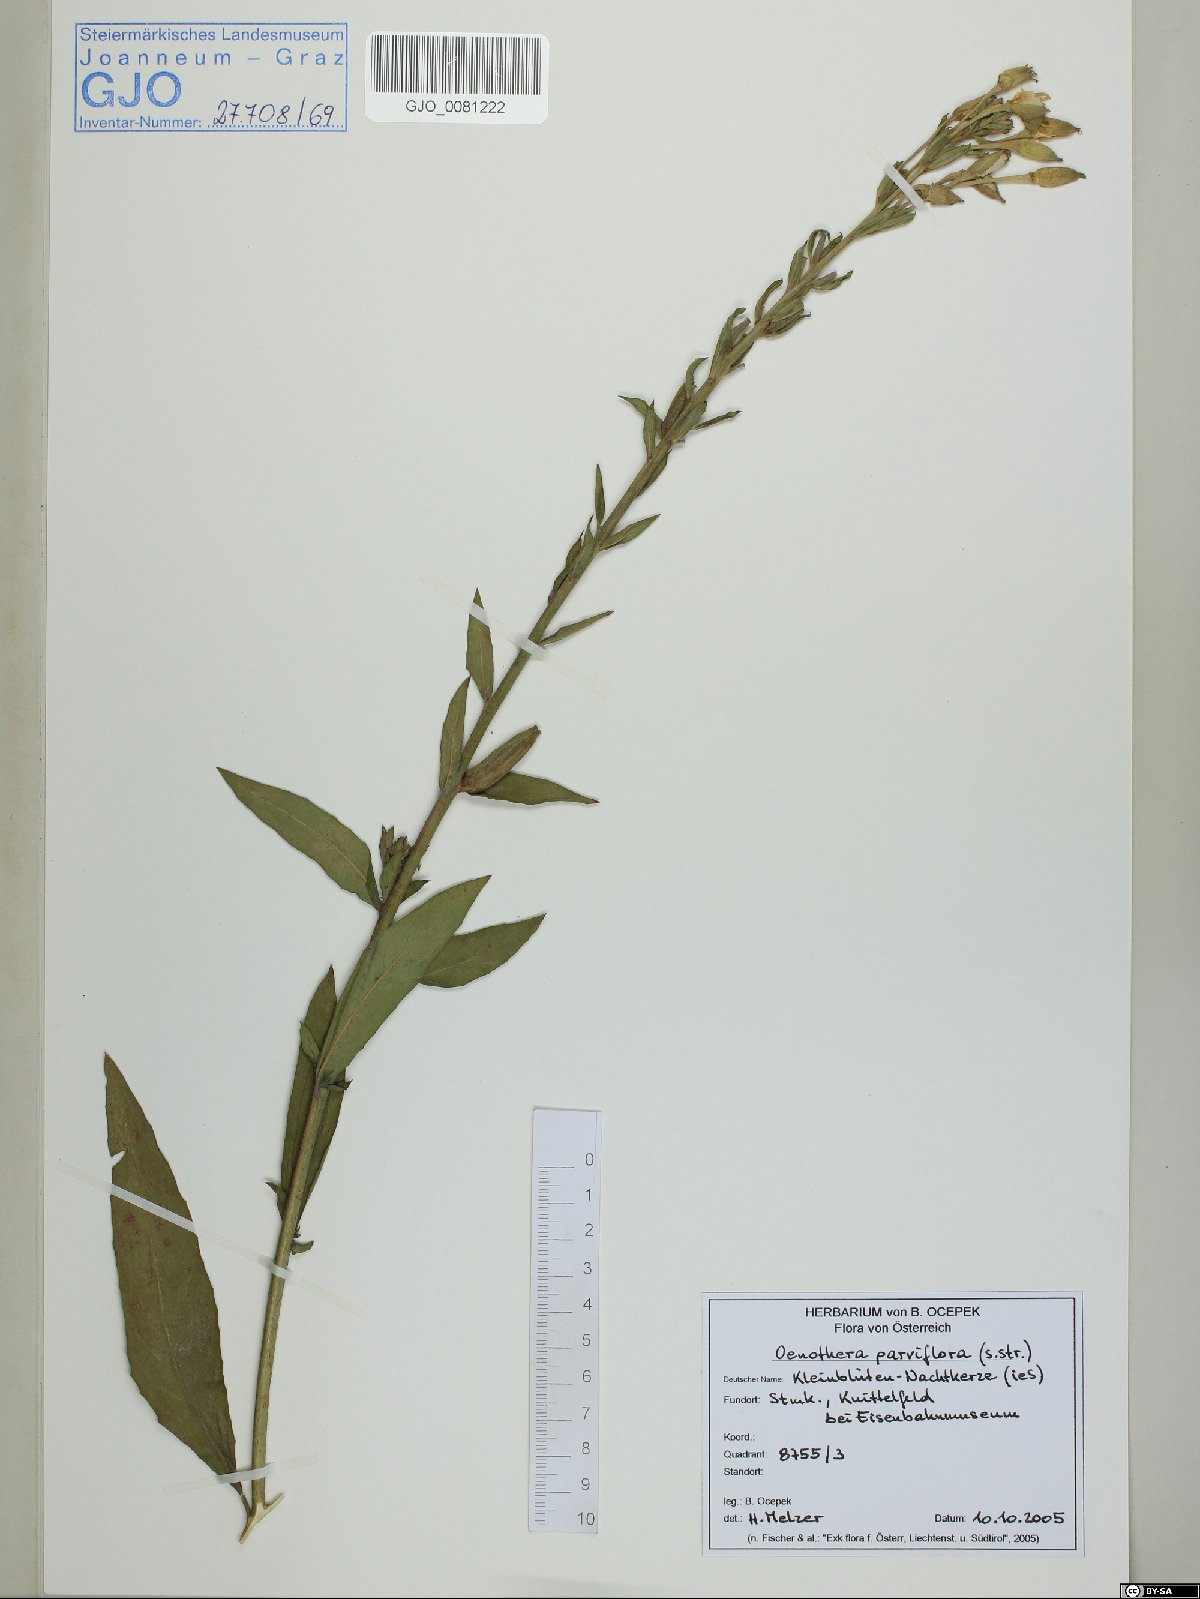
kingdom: Plantae
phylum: Tracheophyta
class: Magnoliopsida
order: Myrtales
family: Onagraceae
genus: Oenothera
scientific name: Oenothera parviflora
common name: Least evening-primrose
